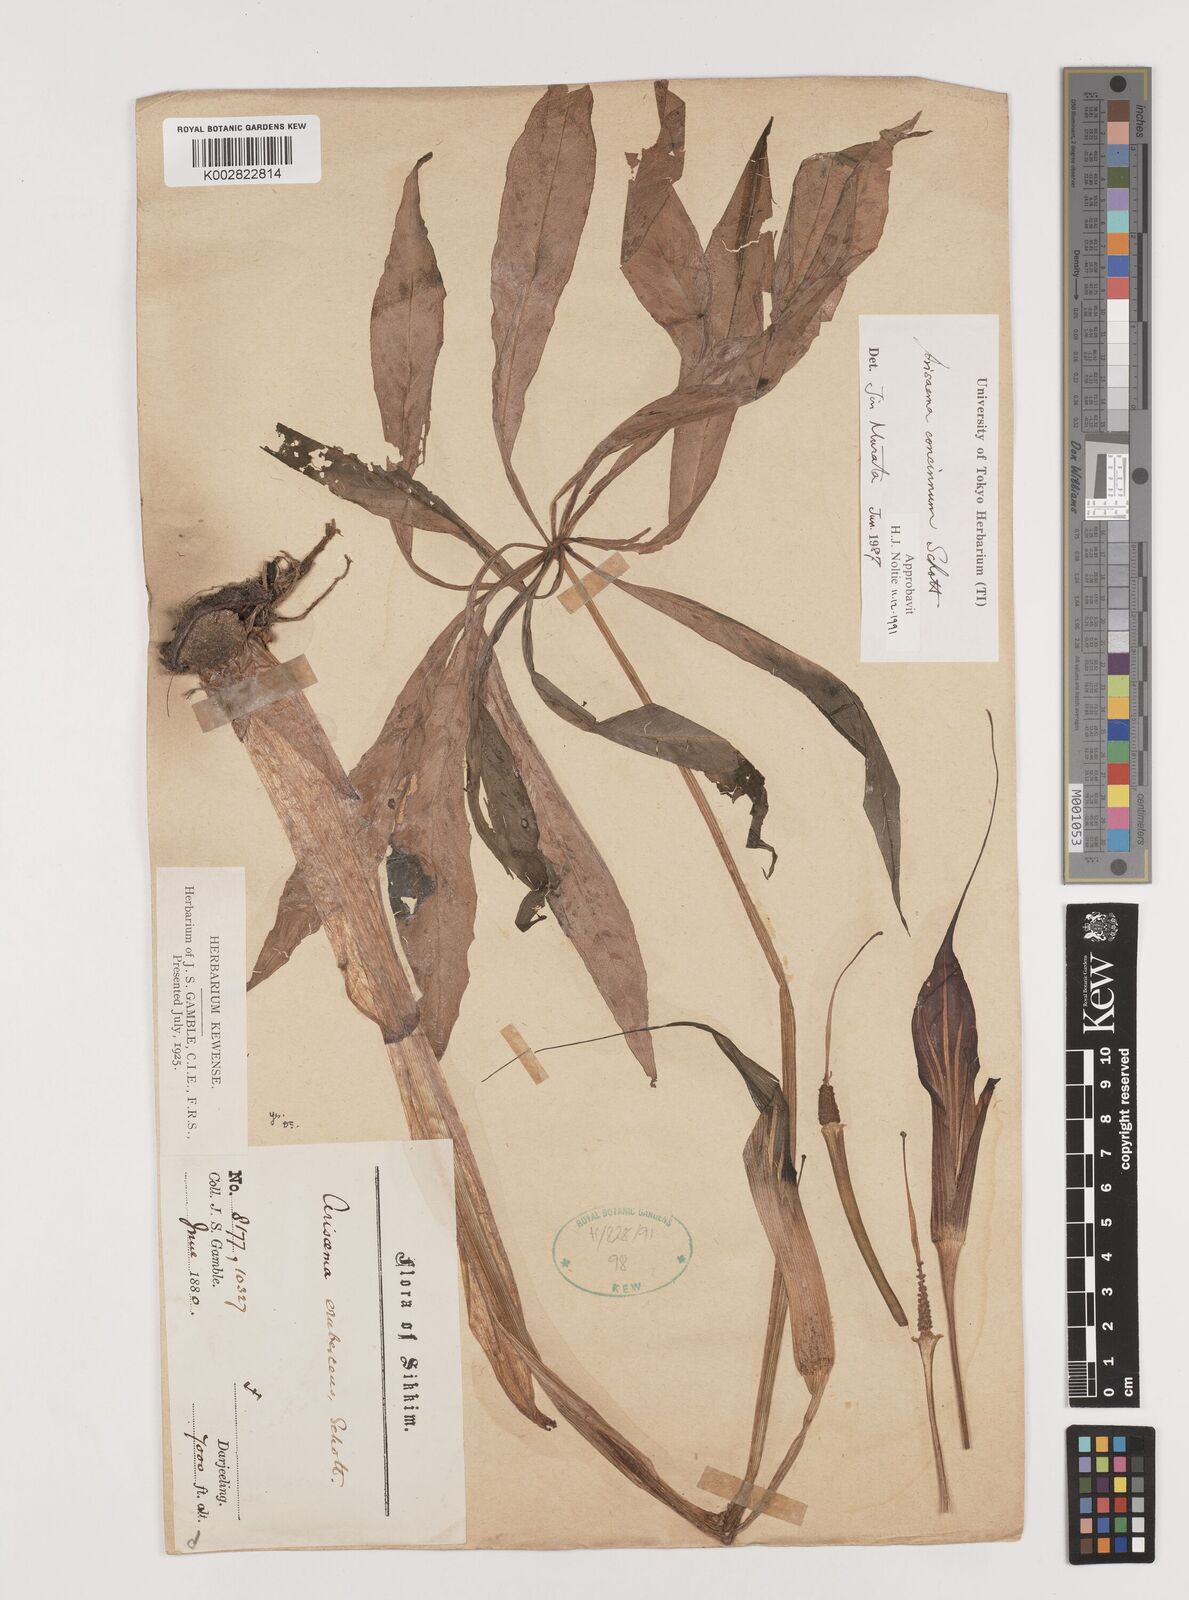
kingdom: Plantae
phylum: Tracheophyta
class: Liliopsida
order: Alismatales
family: Araceae
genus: Arisaema
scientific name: Arisaema concinnum
